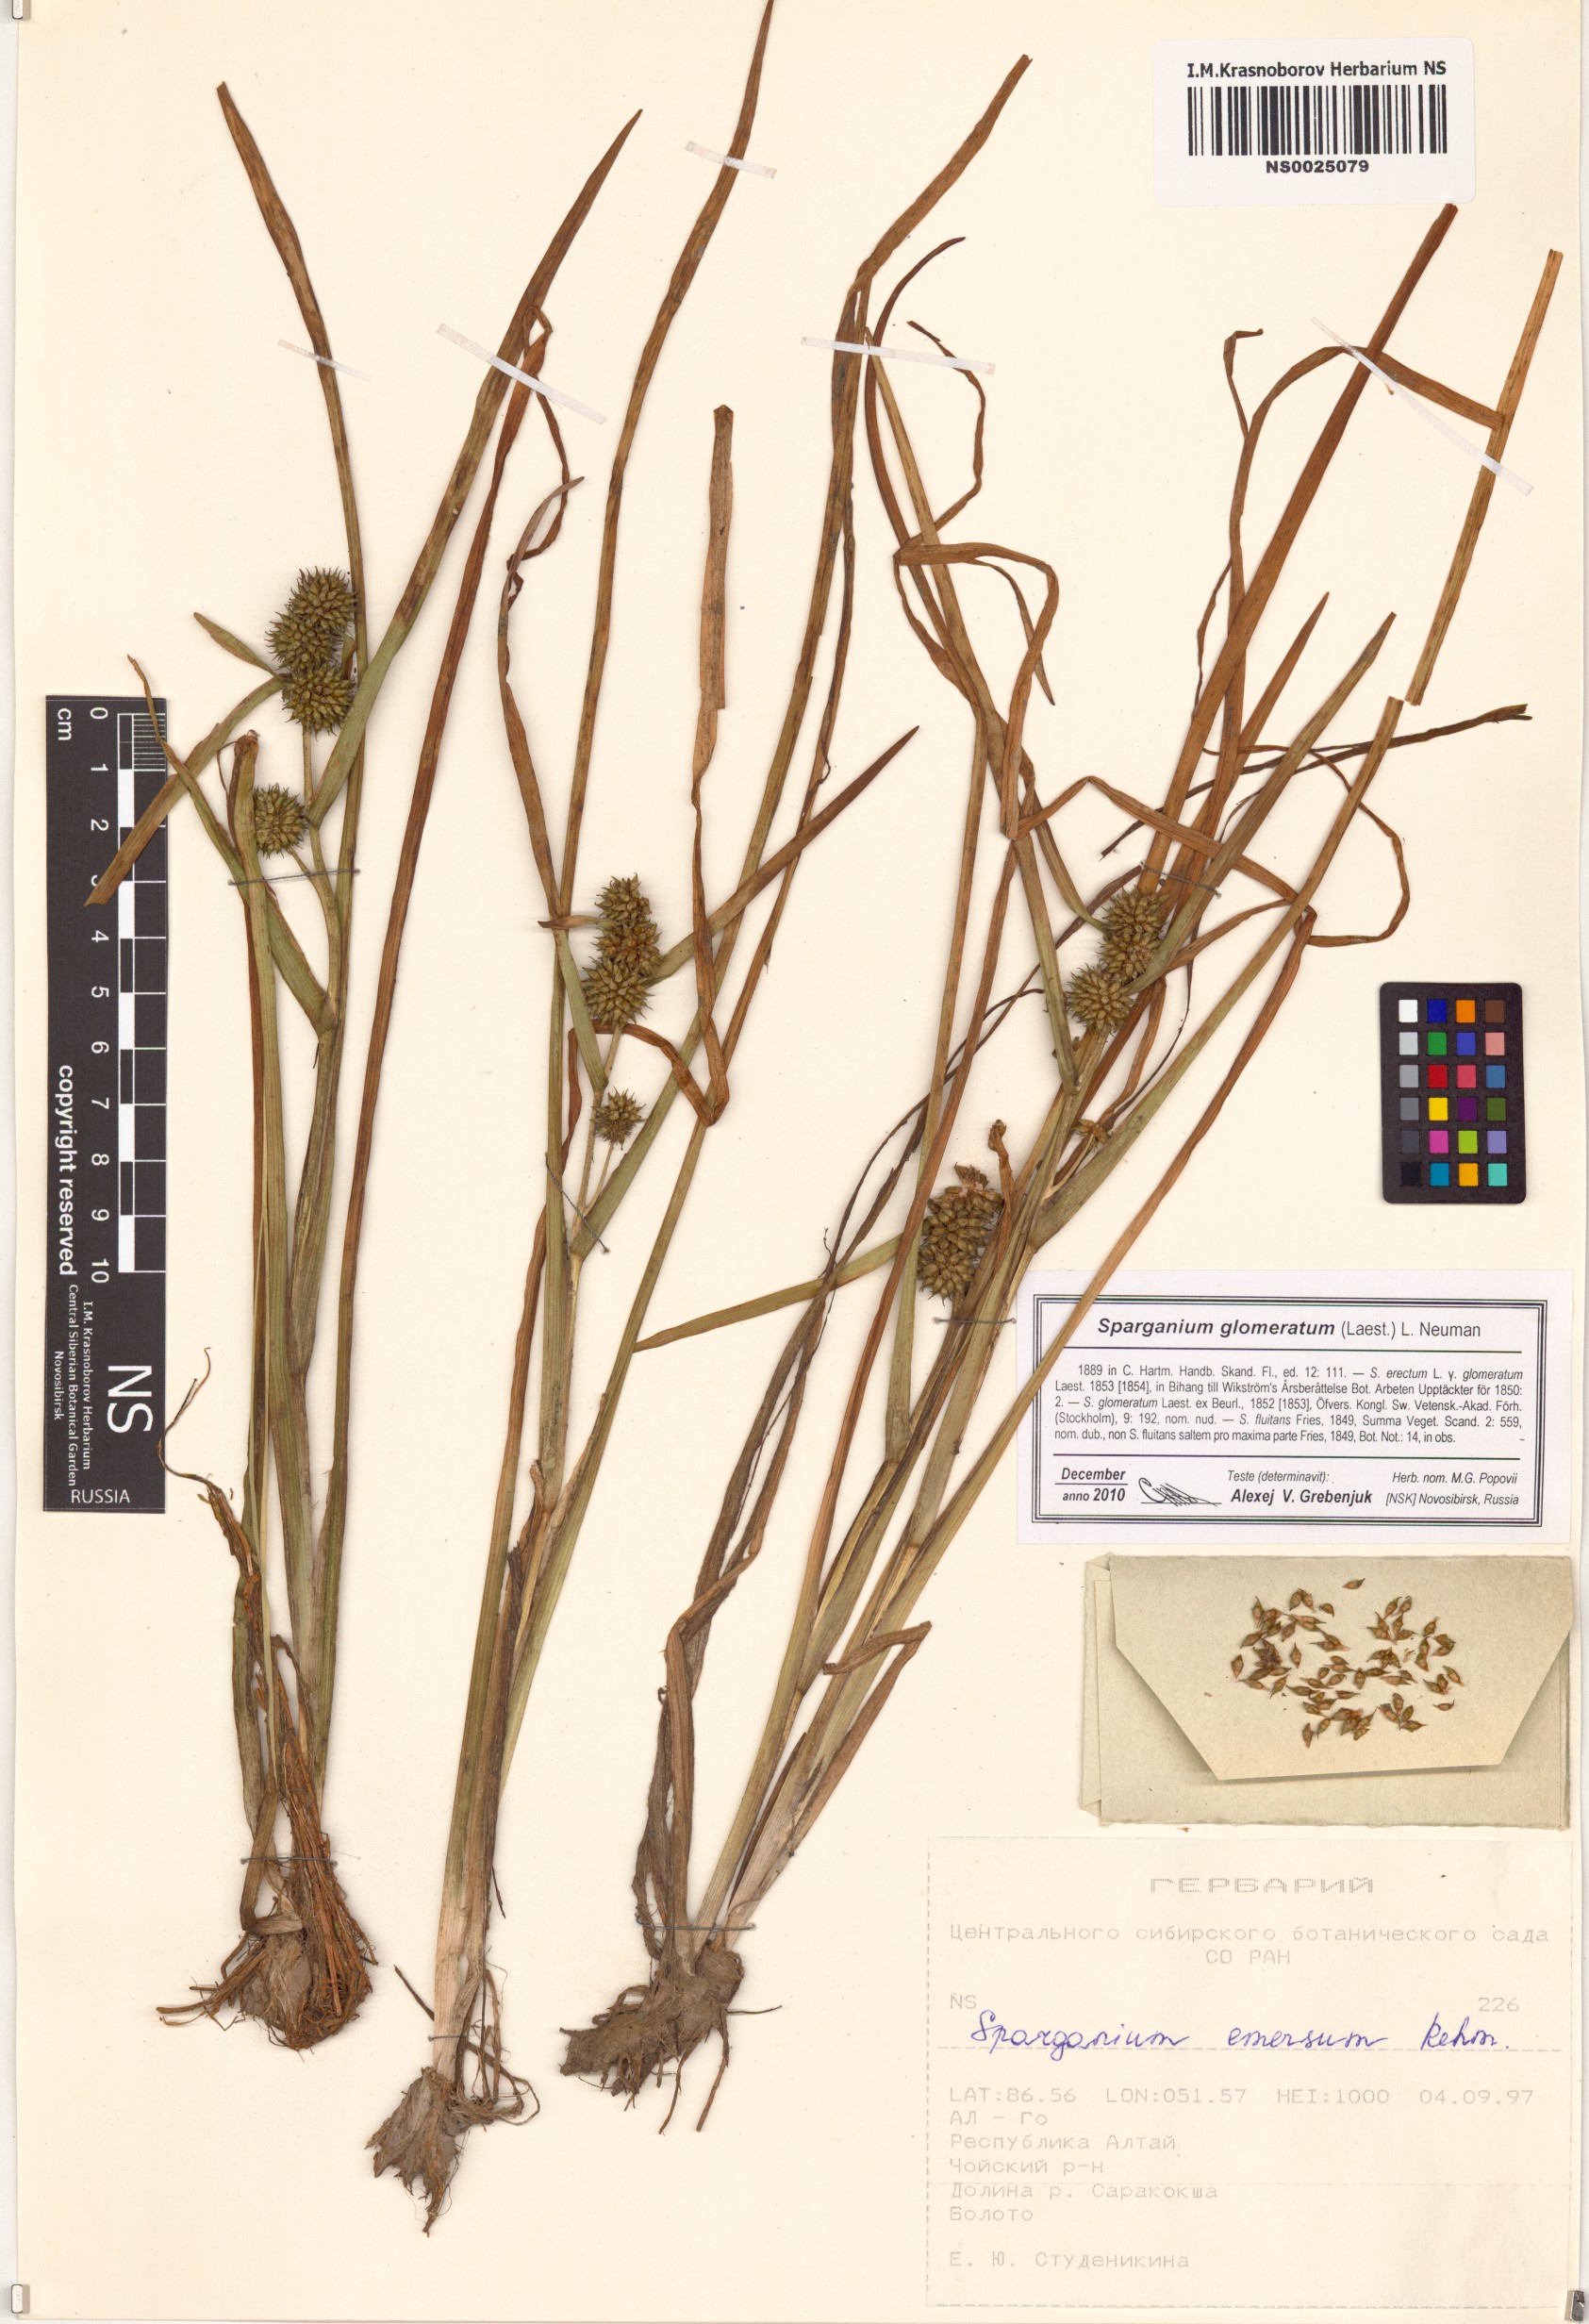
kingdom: Plantae
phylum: Tracheophyta
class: Liliopsida
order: Poales
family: Typhaceae
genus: Sparganium
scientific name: Sparganium glomeratum
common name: Clustered burreed
